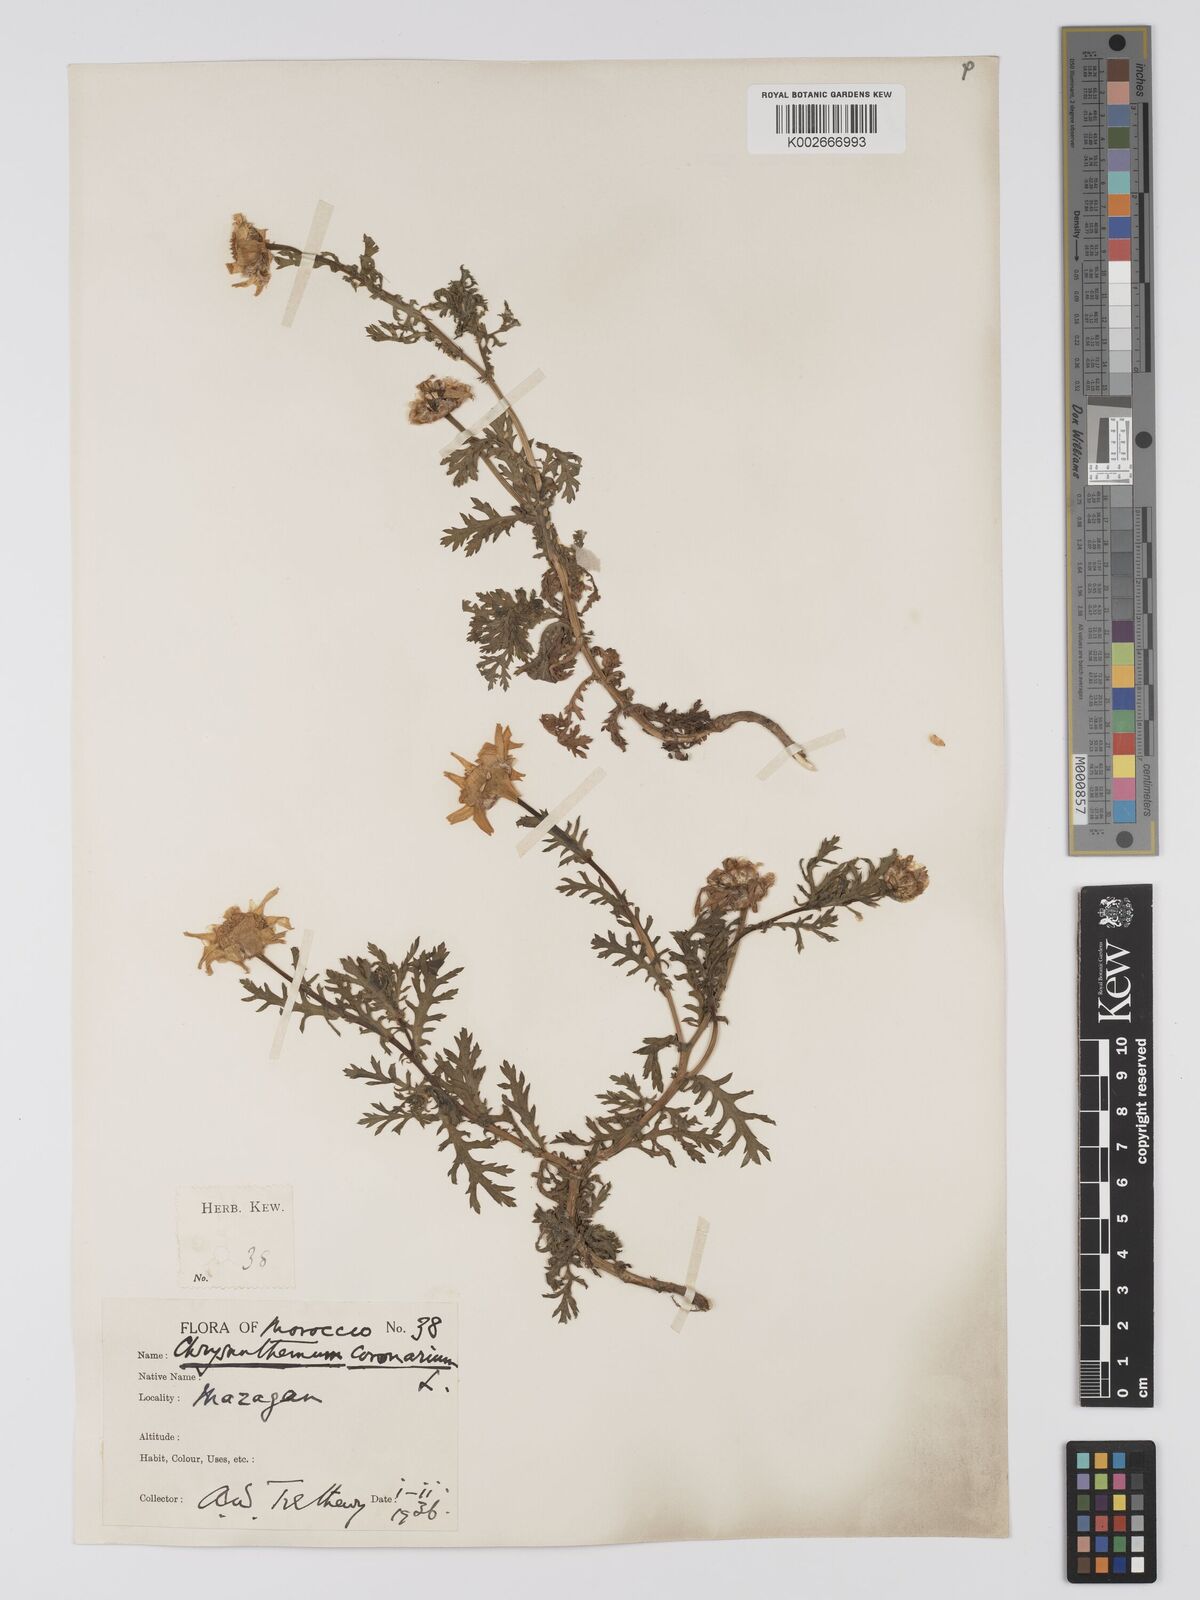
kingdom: Plantae
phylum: Tracheophyta
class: Magnoliopsida
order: Asterales
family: Asteraceae
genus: Glebionis
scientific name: Glebionis coronaria
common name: Crowndaisy
